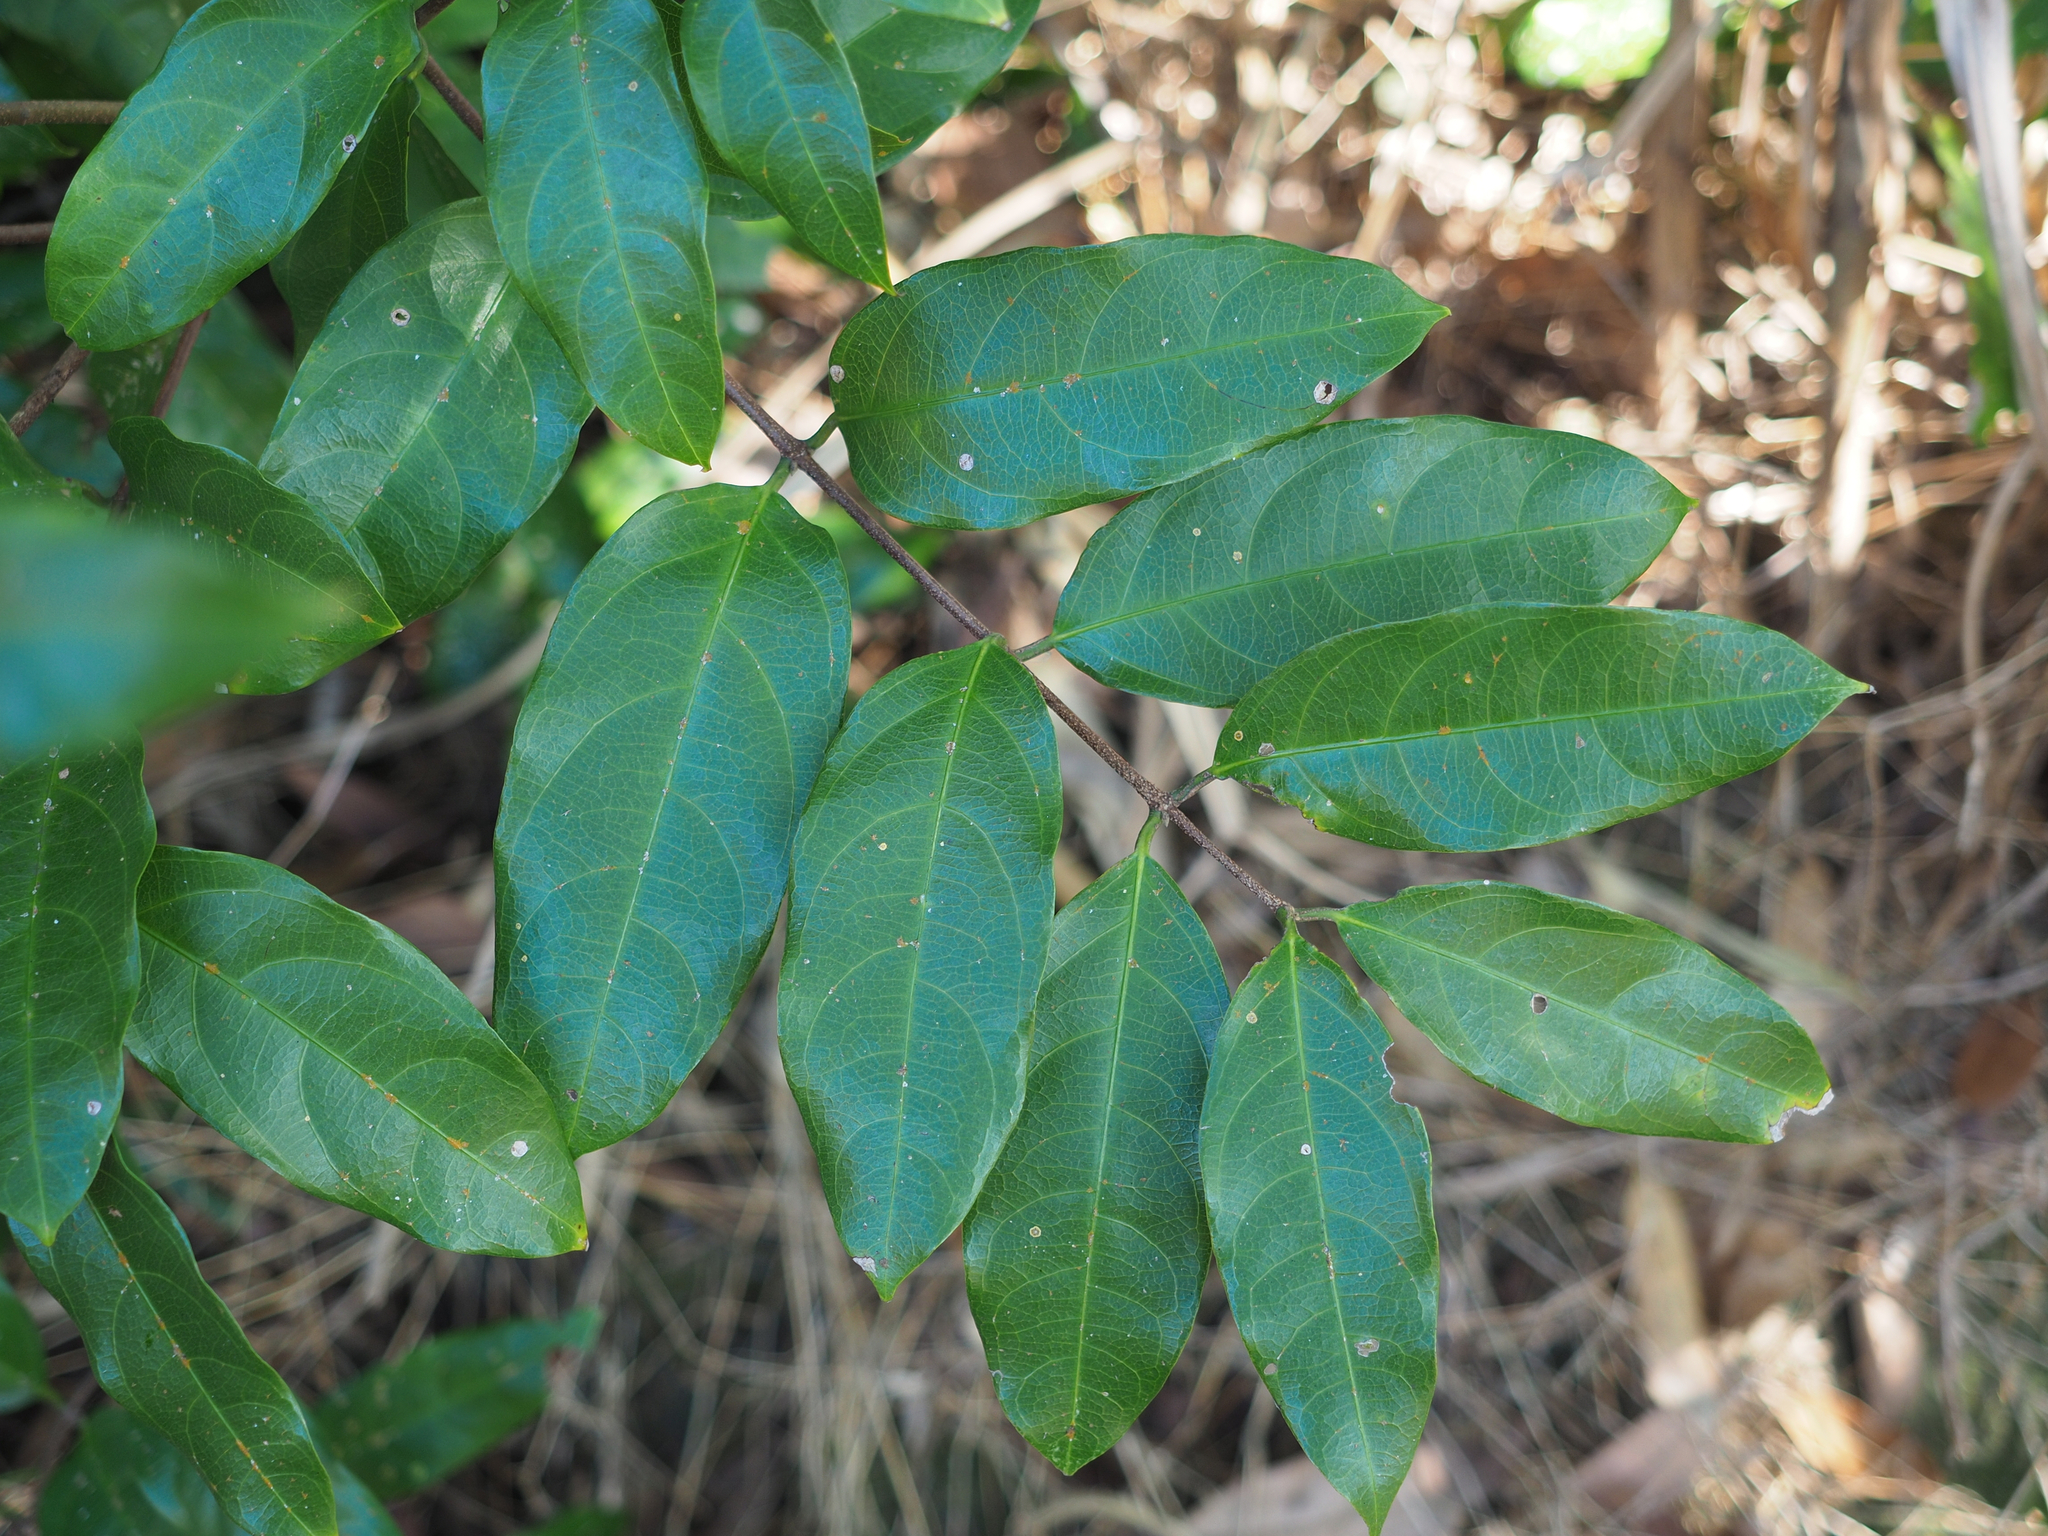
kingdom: Plantae
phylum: Tracheophyta
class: Magnoliopsida
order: Malpighiales
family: Malpighiaceae
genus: Hiptage
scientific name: Hiptage benghalensis
